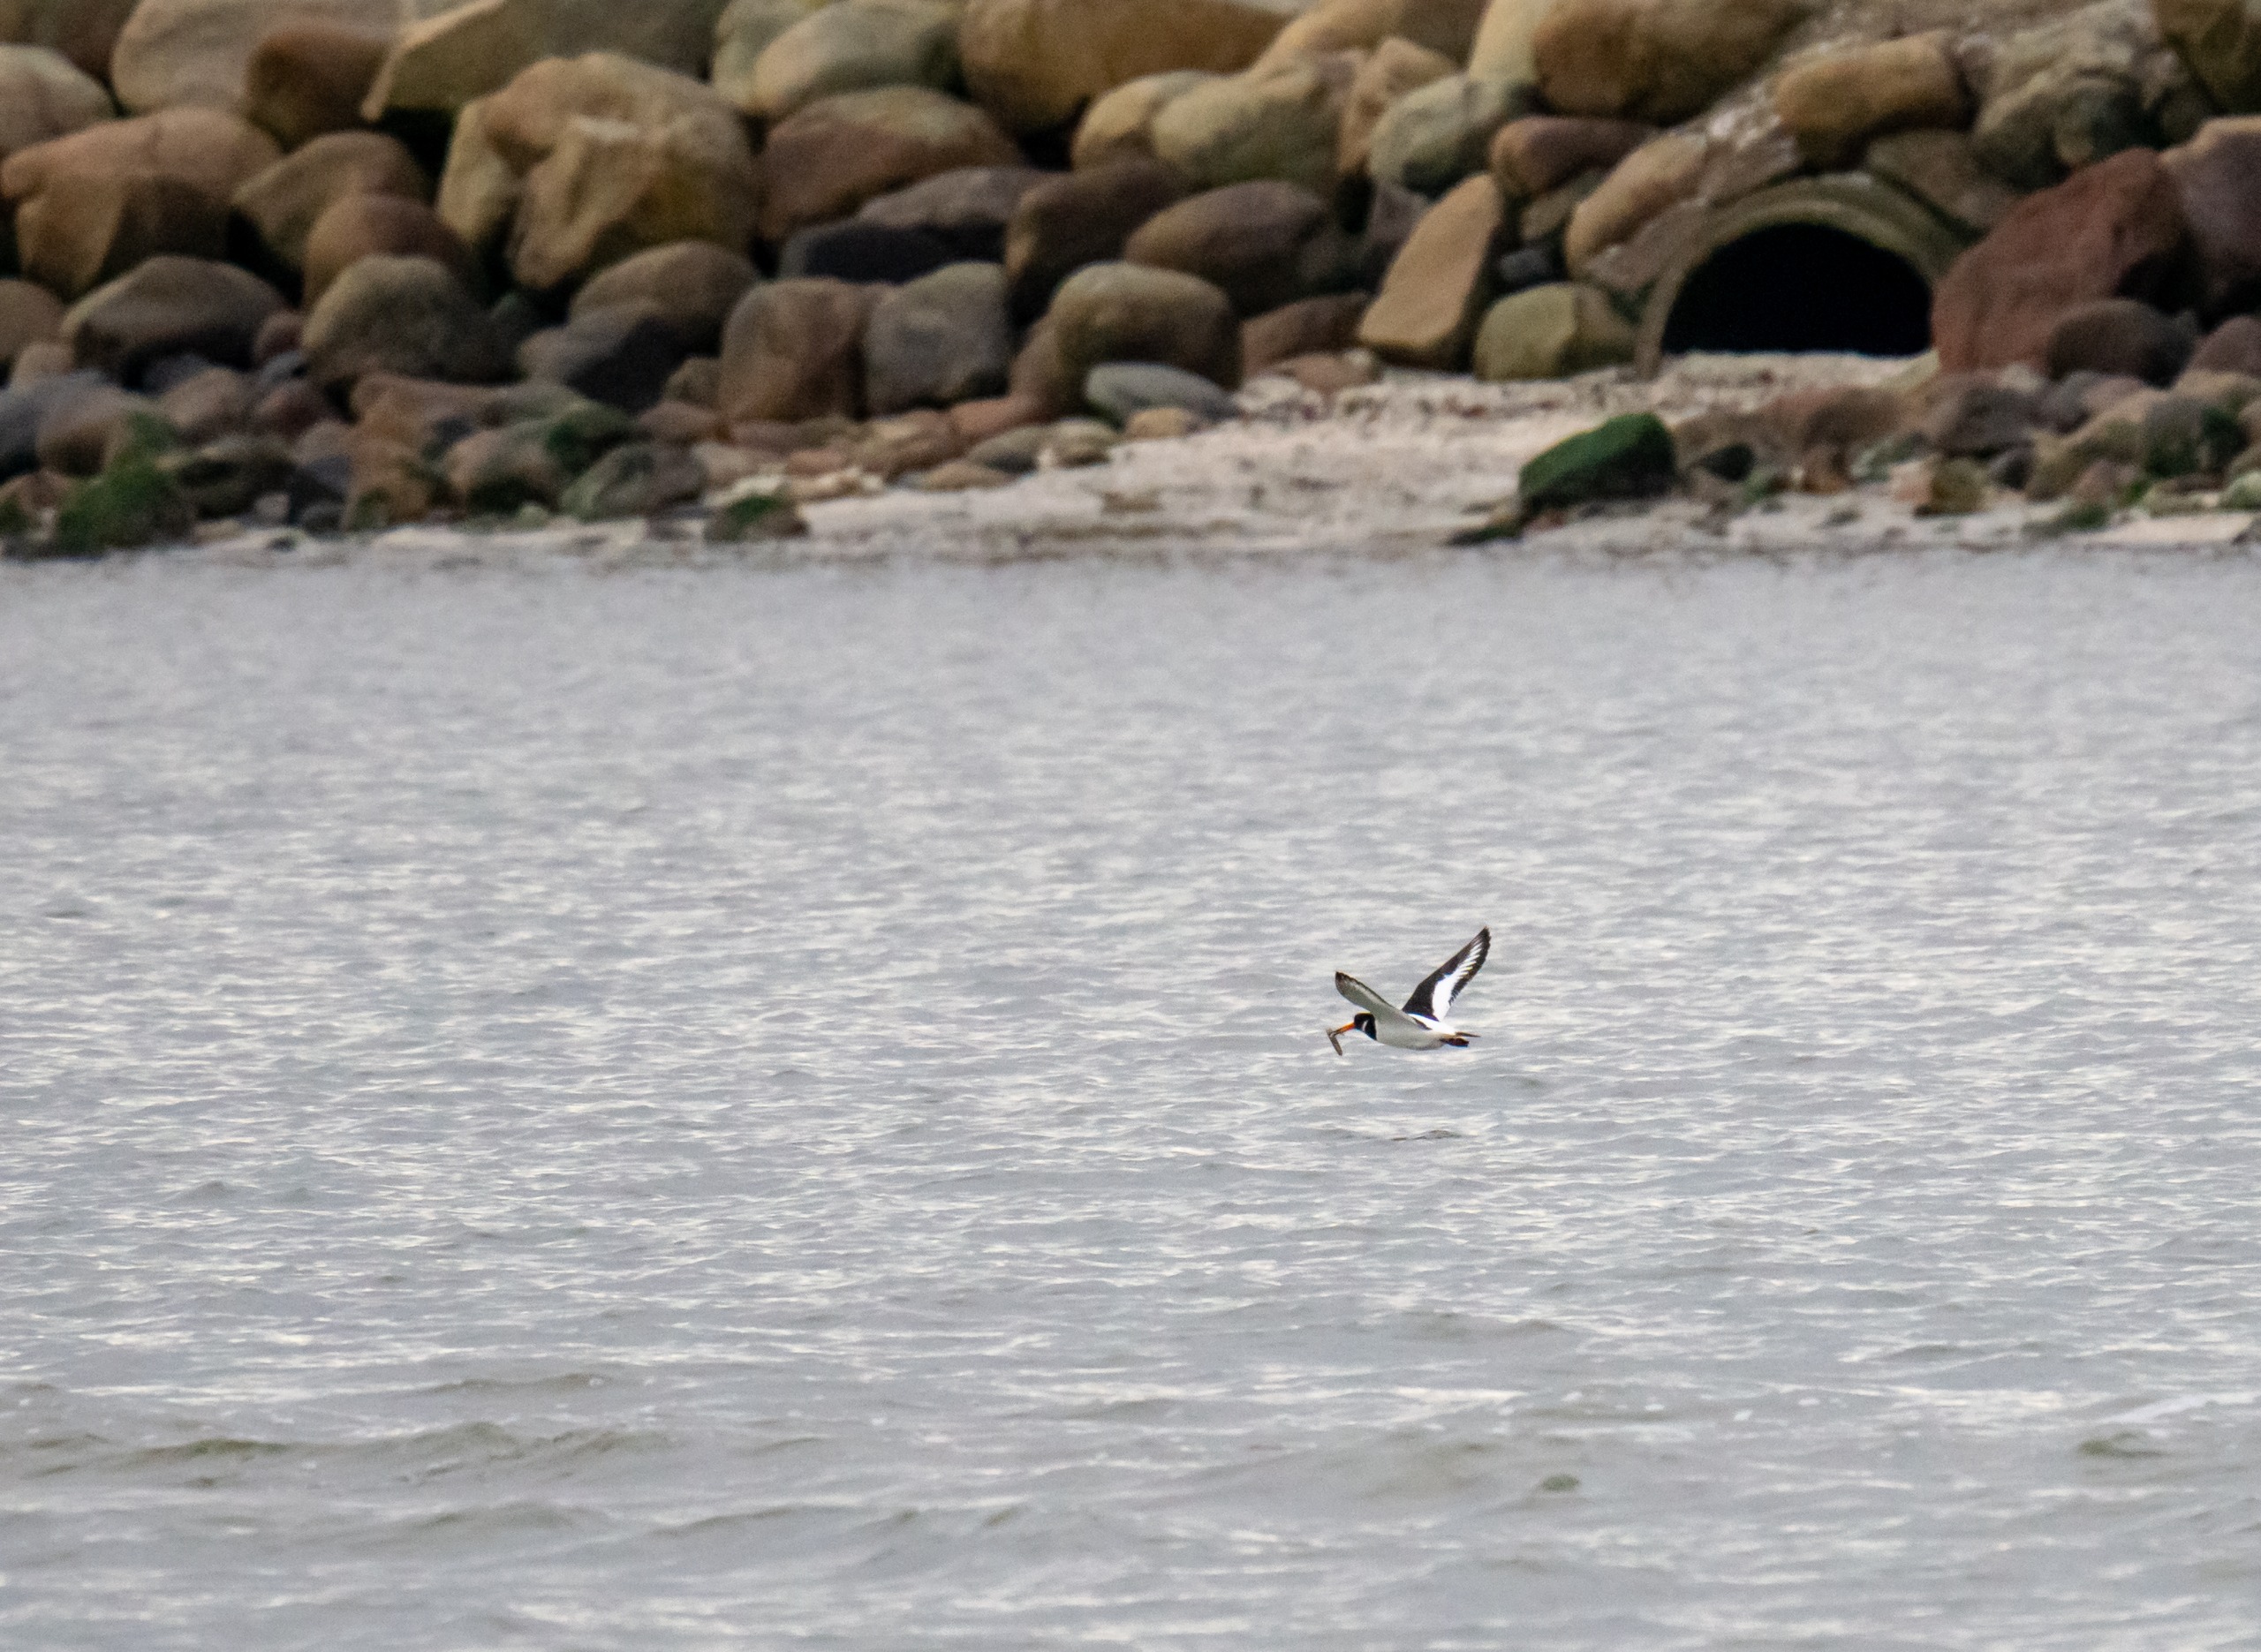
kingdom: Animalia
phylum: Chordata
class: Aves
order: Charadriiformes
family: Haematopodidae
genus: Haematopus
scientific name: Haematopus ostralegus
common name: Strandskade
